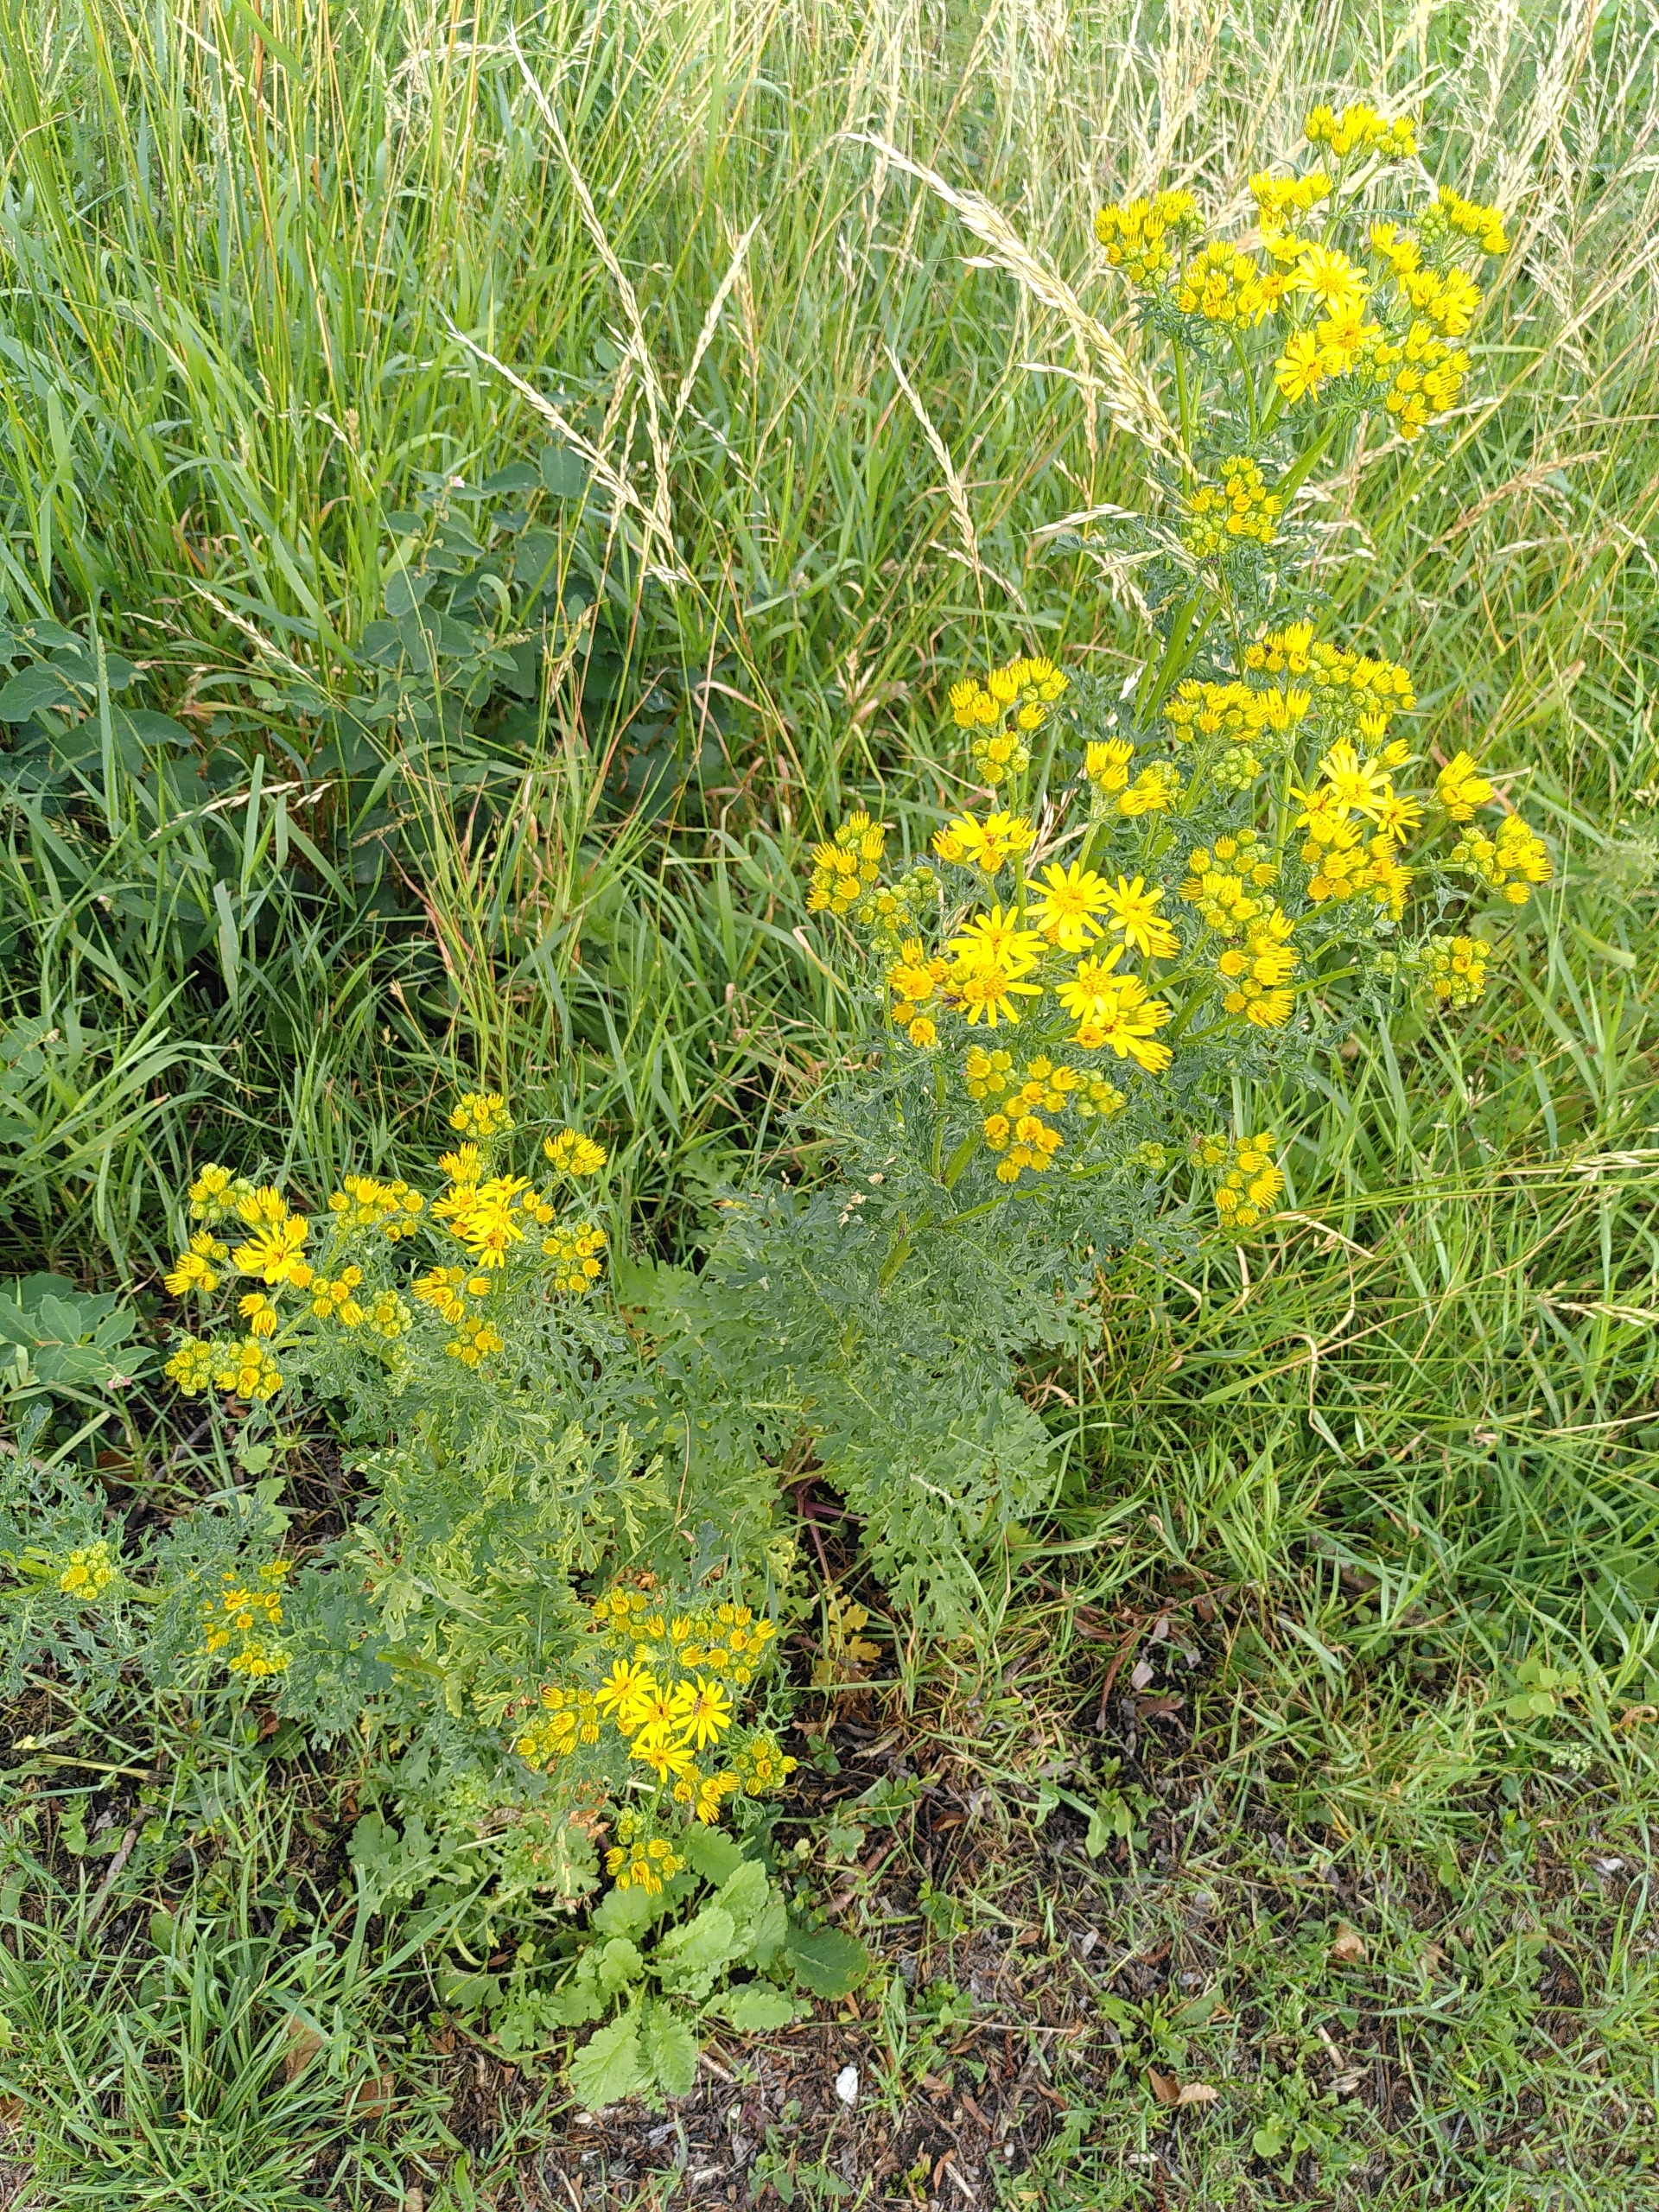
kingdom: Plantae
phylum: Tracheophyta
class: Magnoliopsida
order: Asterales
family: Asteraceae
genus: Jacobaea
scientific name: Jacobaea vulgaris
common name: Eng-brandbæger
